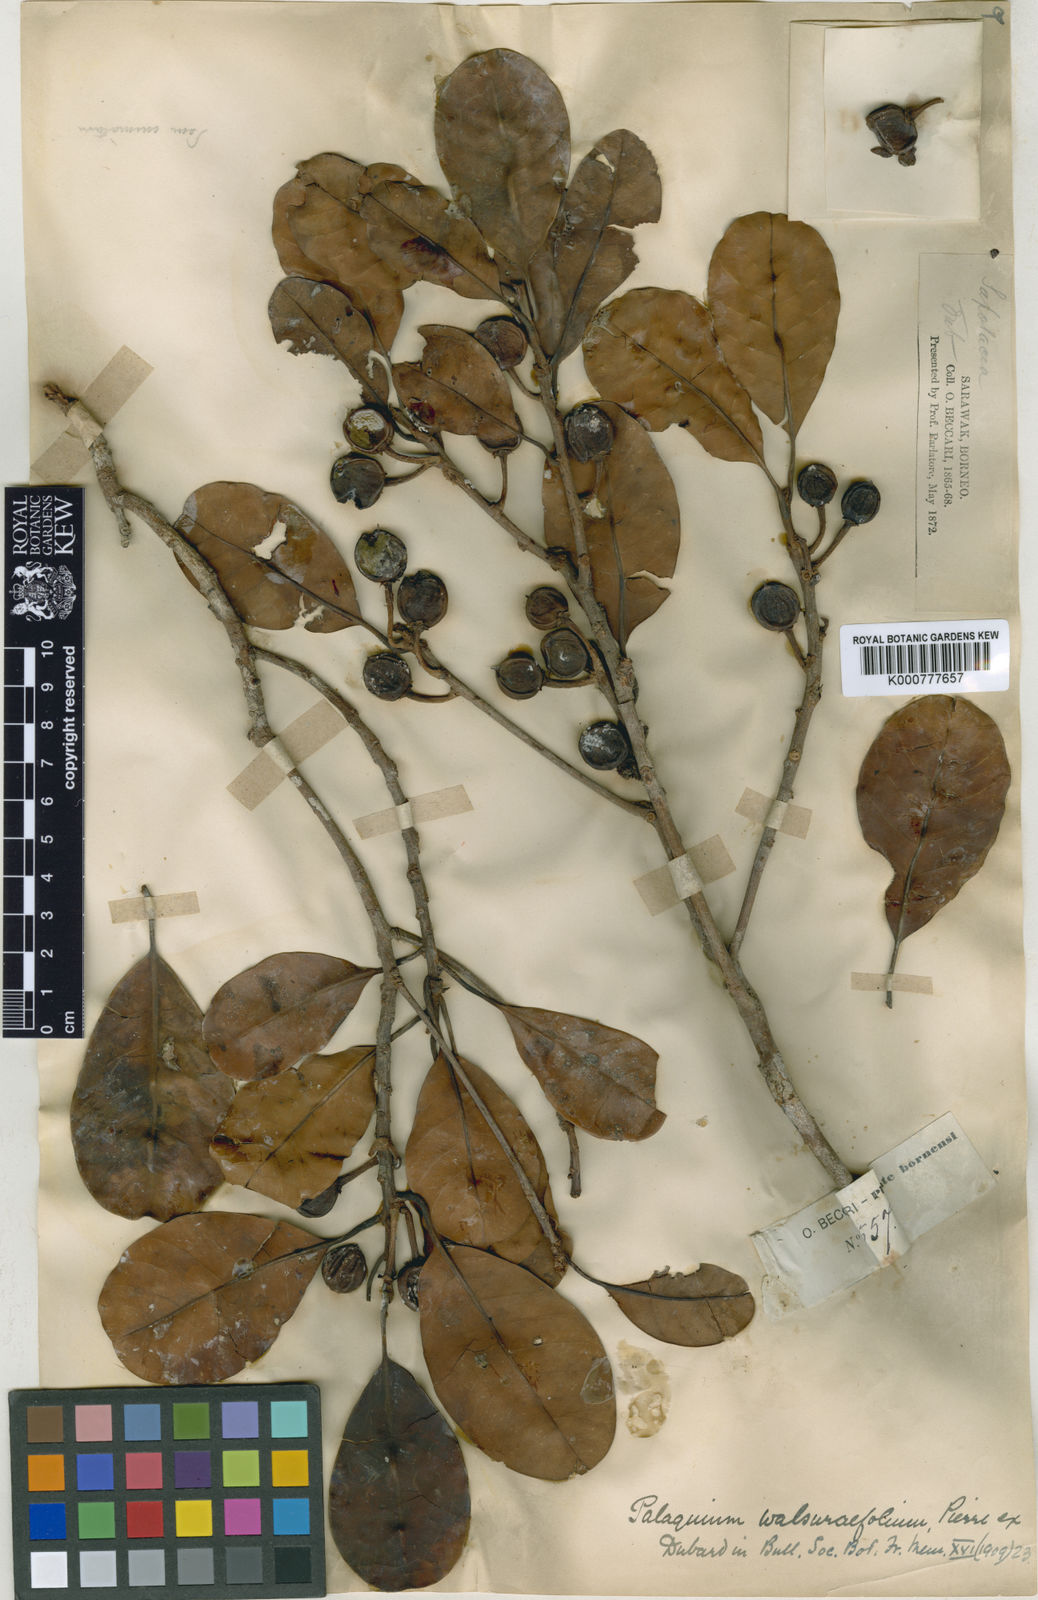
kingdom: Plantae
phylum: Tracheophyta
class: Magnoliopsida
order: Ericales
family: Sapotaceae
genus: Palaquium
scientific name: Palaquium walsurifolium
